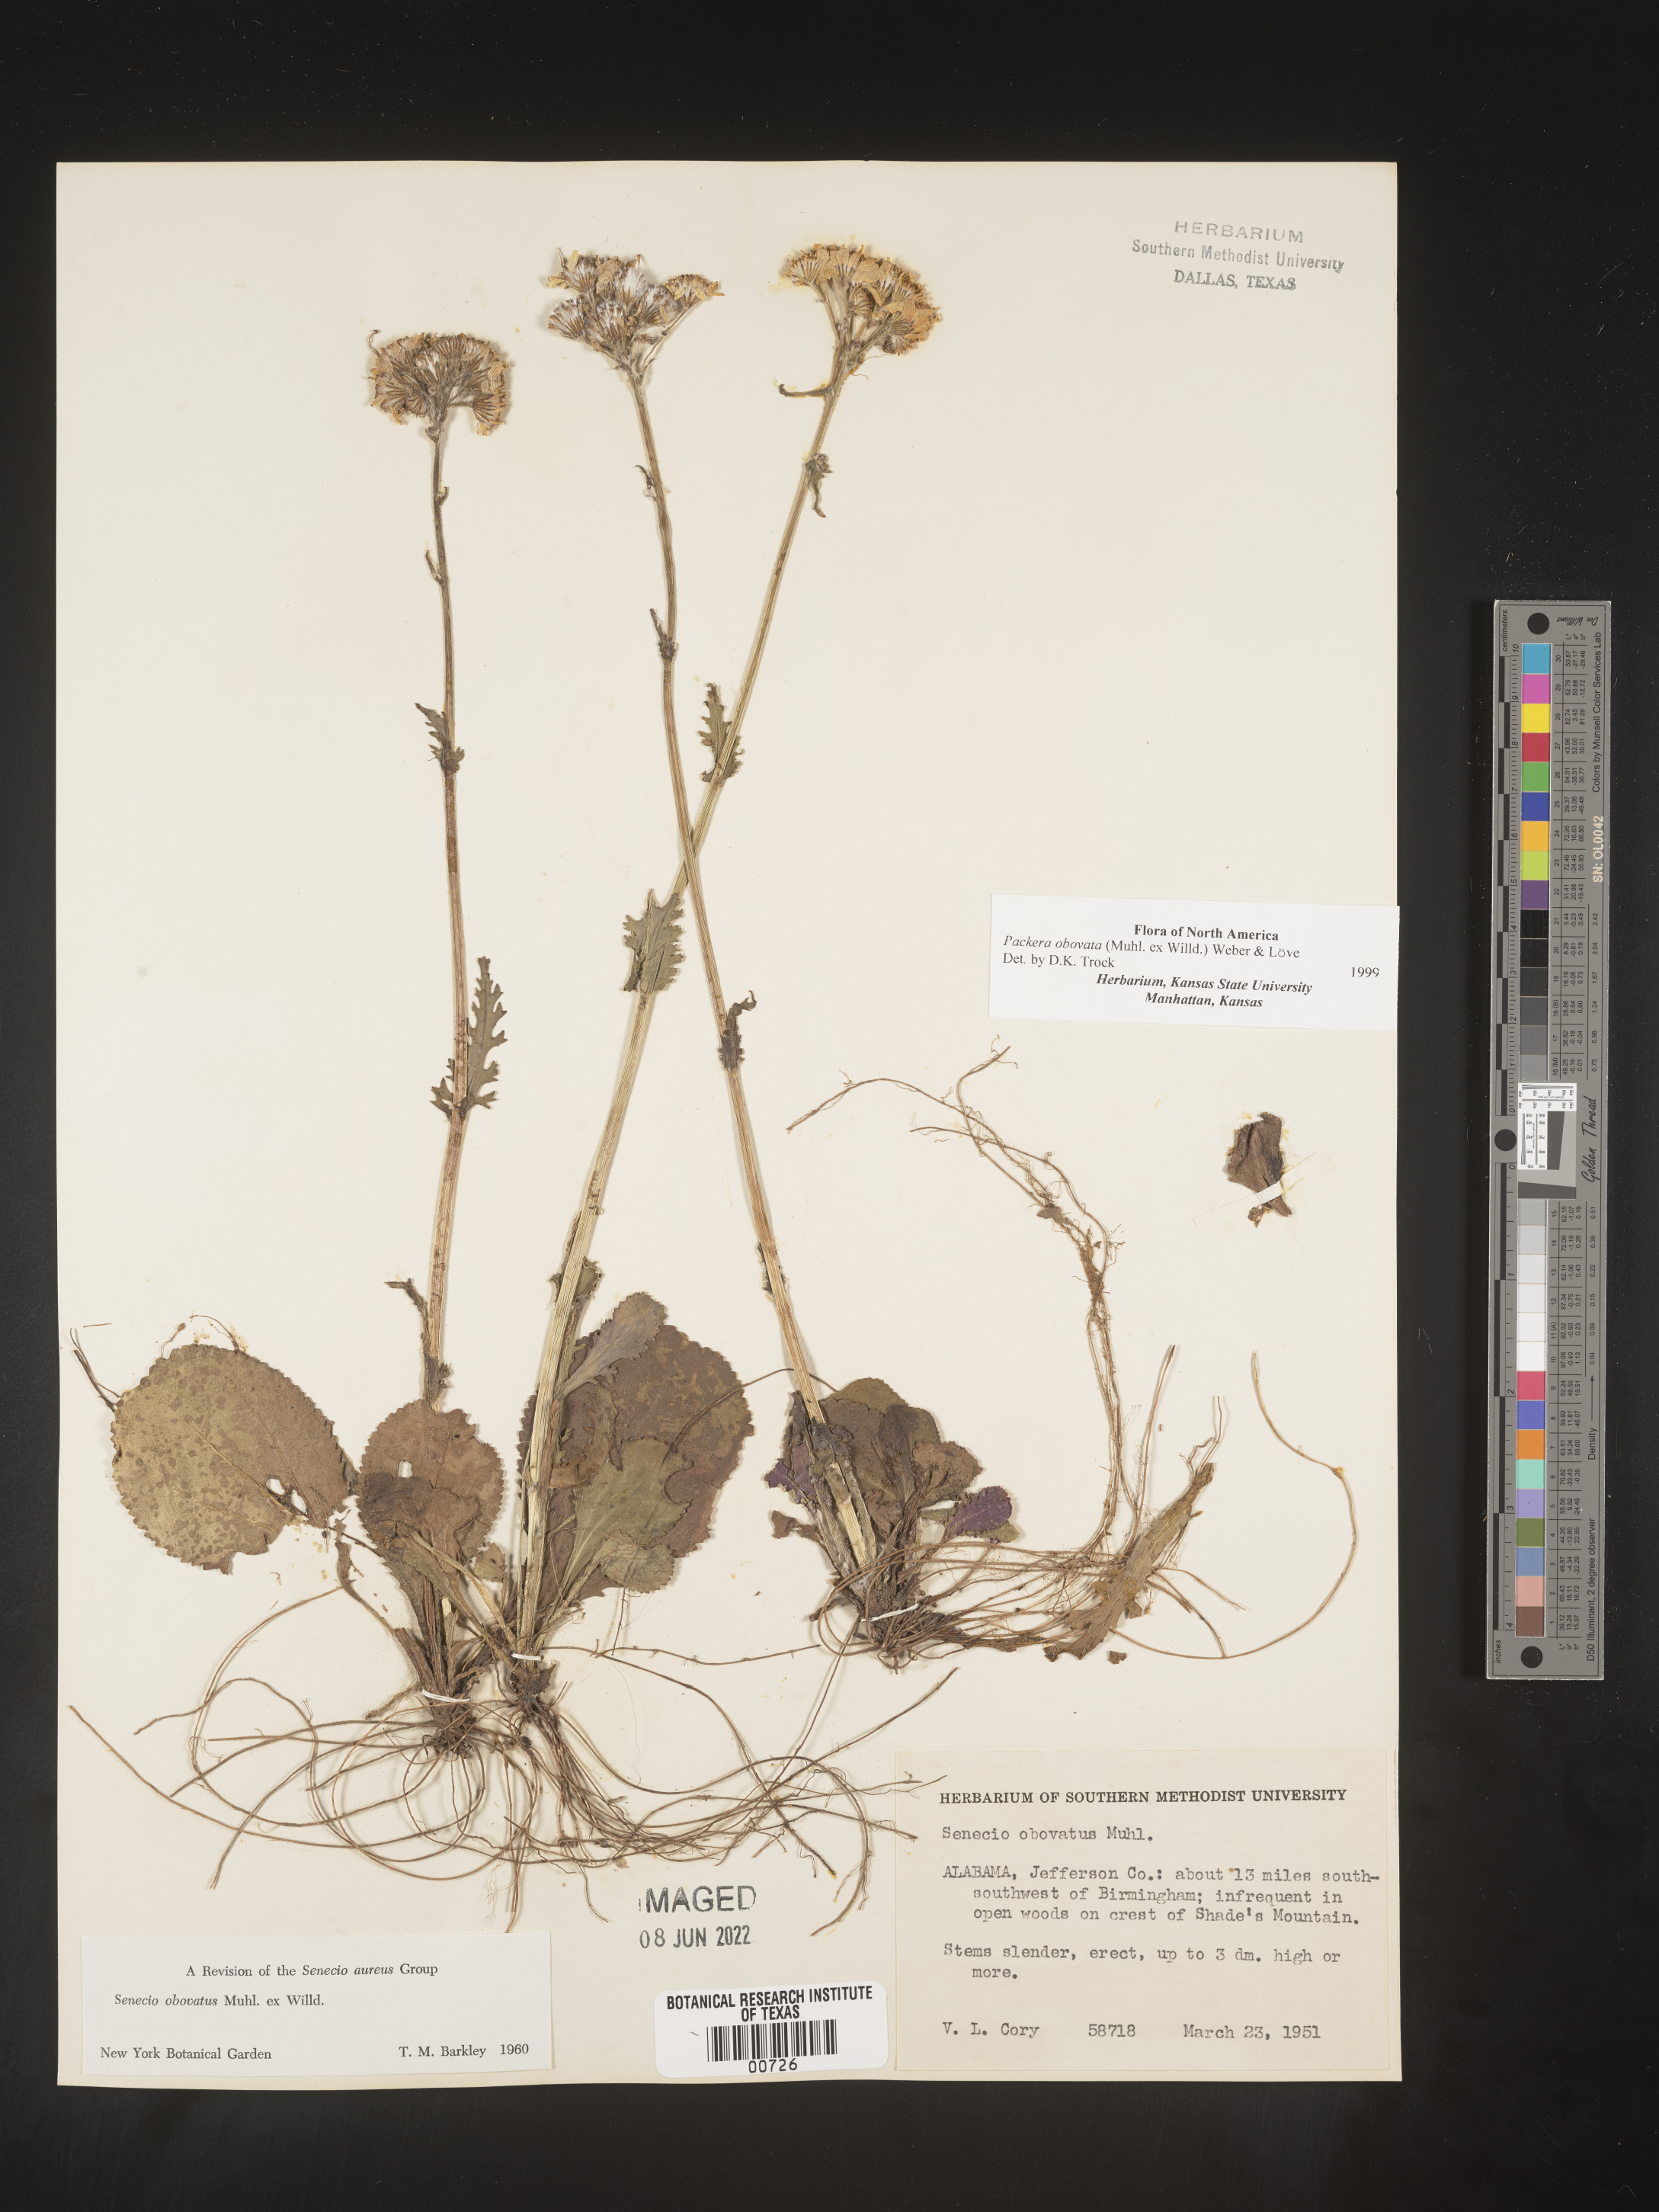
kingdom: Plantae
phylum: Tracheophyta
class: Magnoliopsida
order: Asterales
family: Asteraceae
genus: Packera
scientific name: Packera obovata
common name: Round-leaf ragwort
